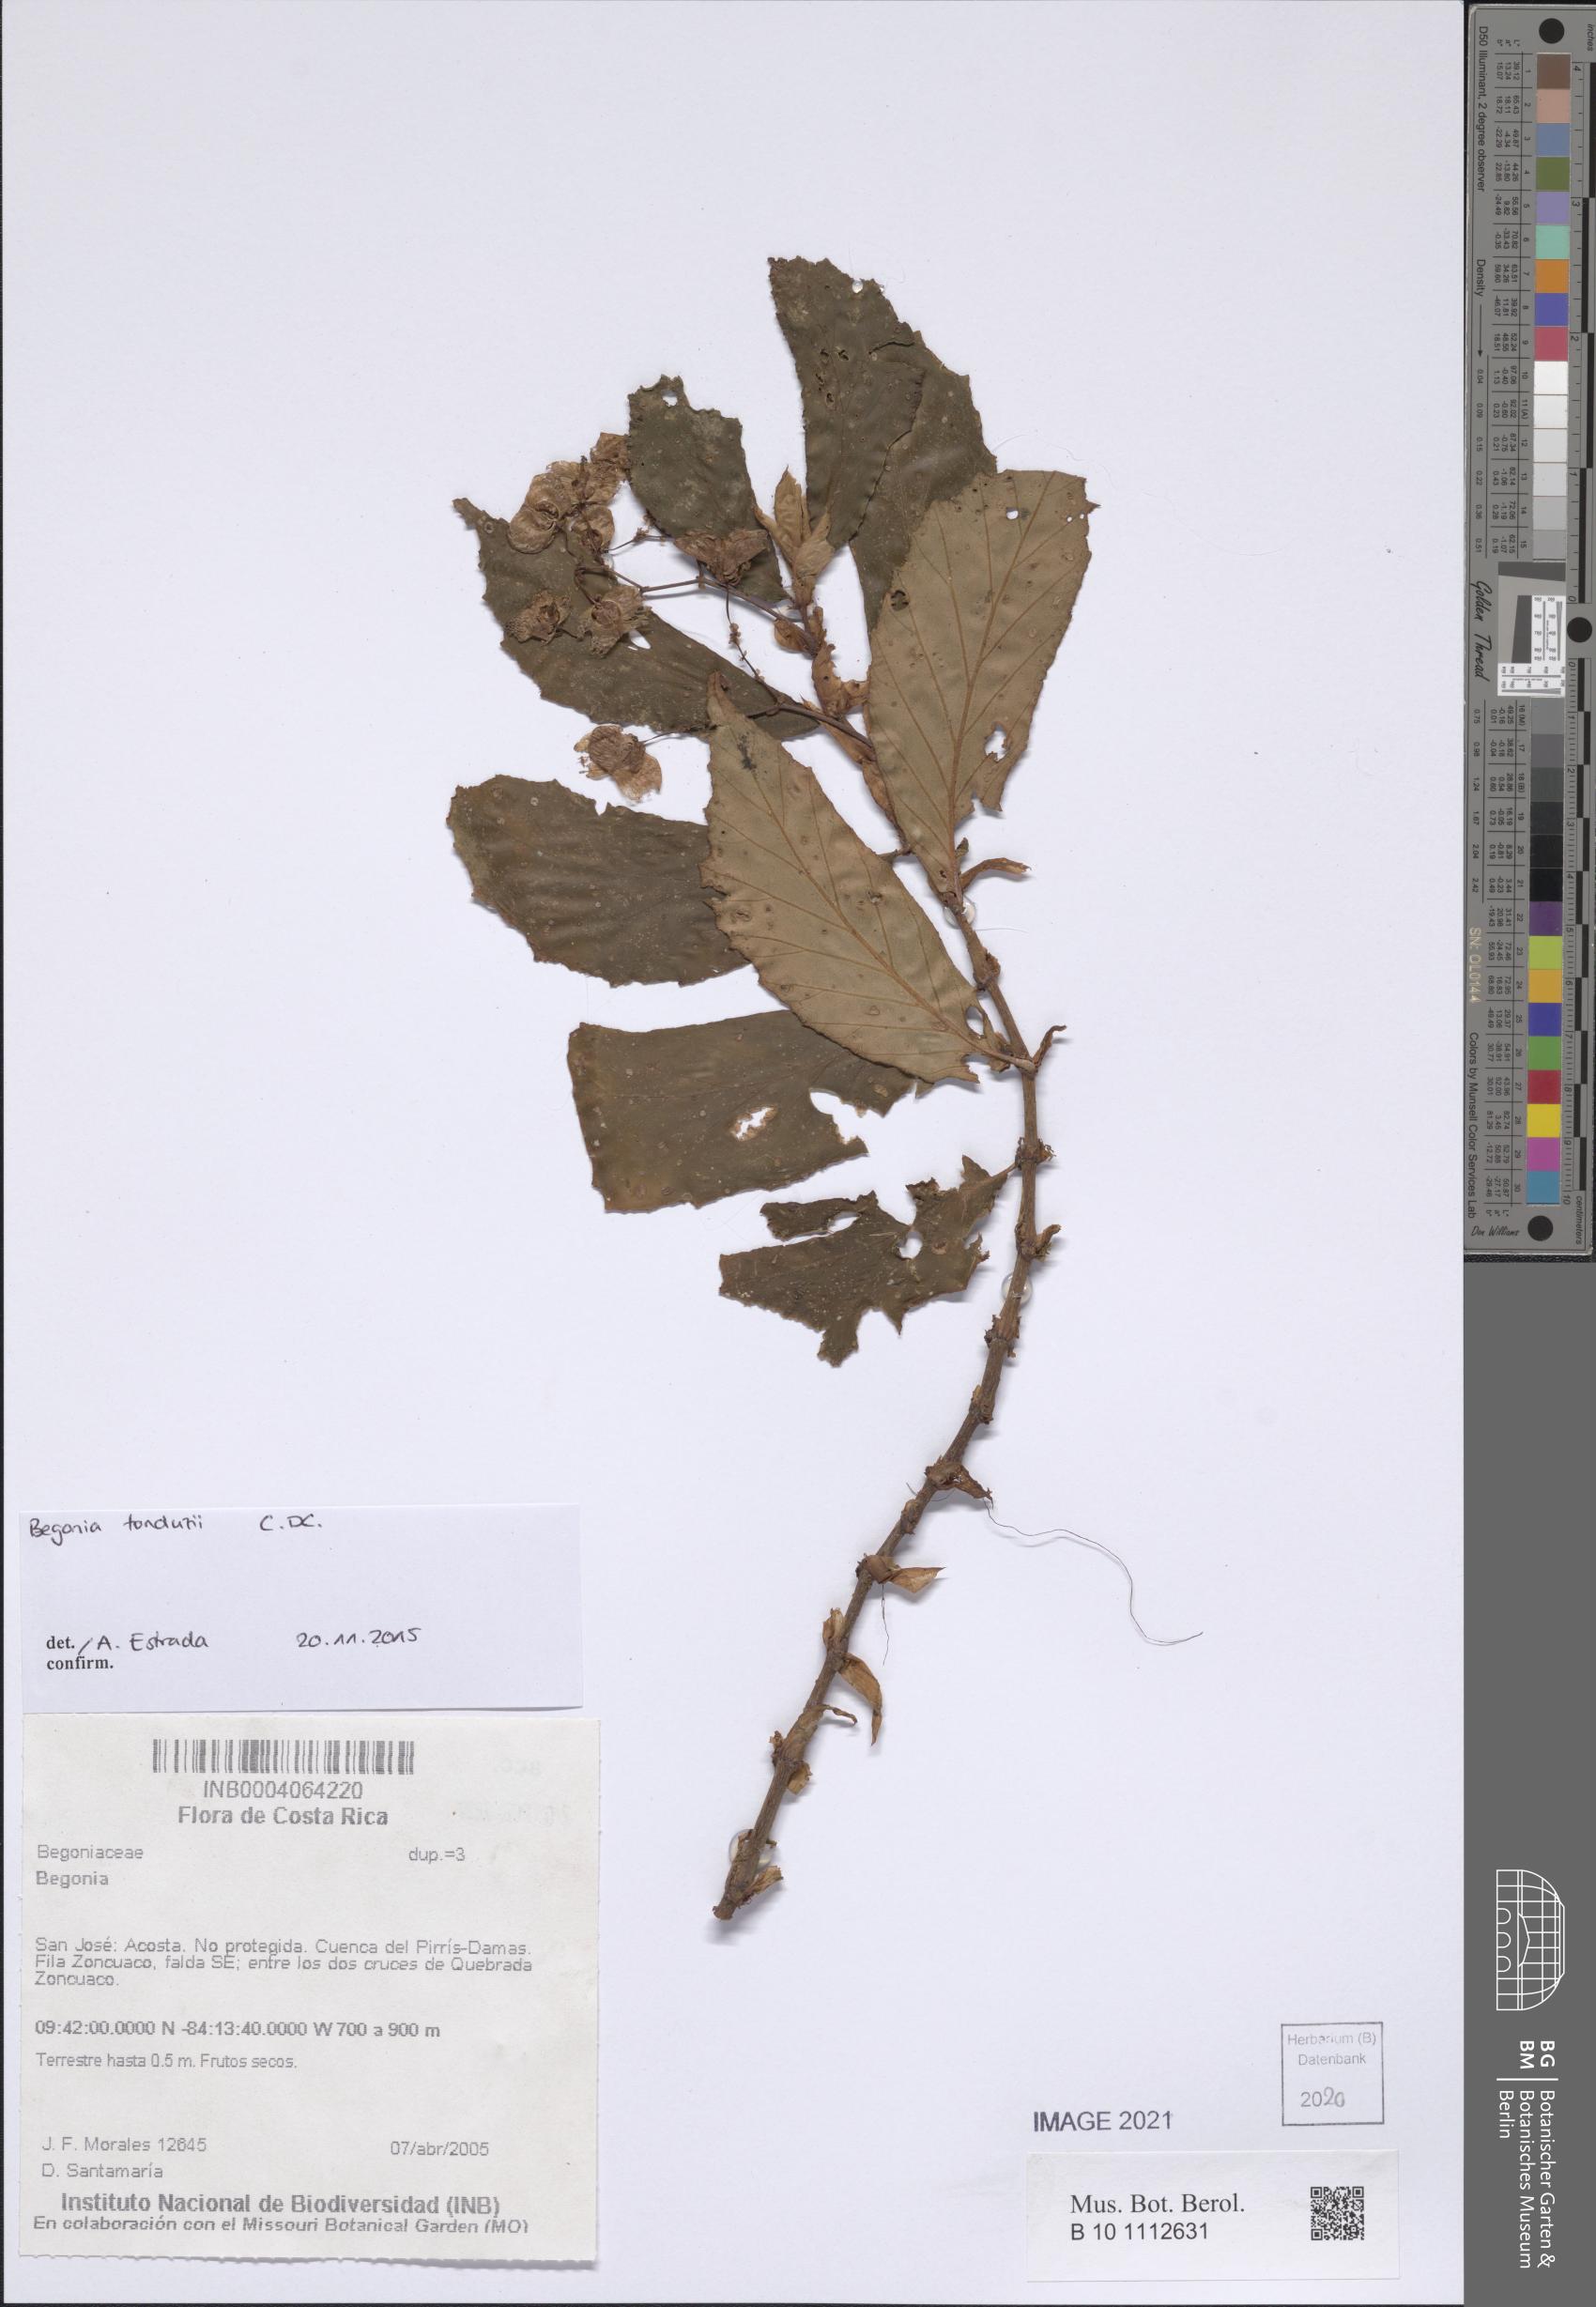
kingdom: Plantae
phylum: Tracheophyta
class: Magnoliopsida
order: Cucurbitales
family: Begoniaceae
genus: Begonia
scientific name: Begonia
